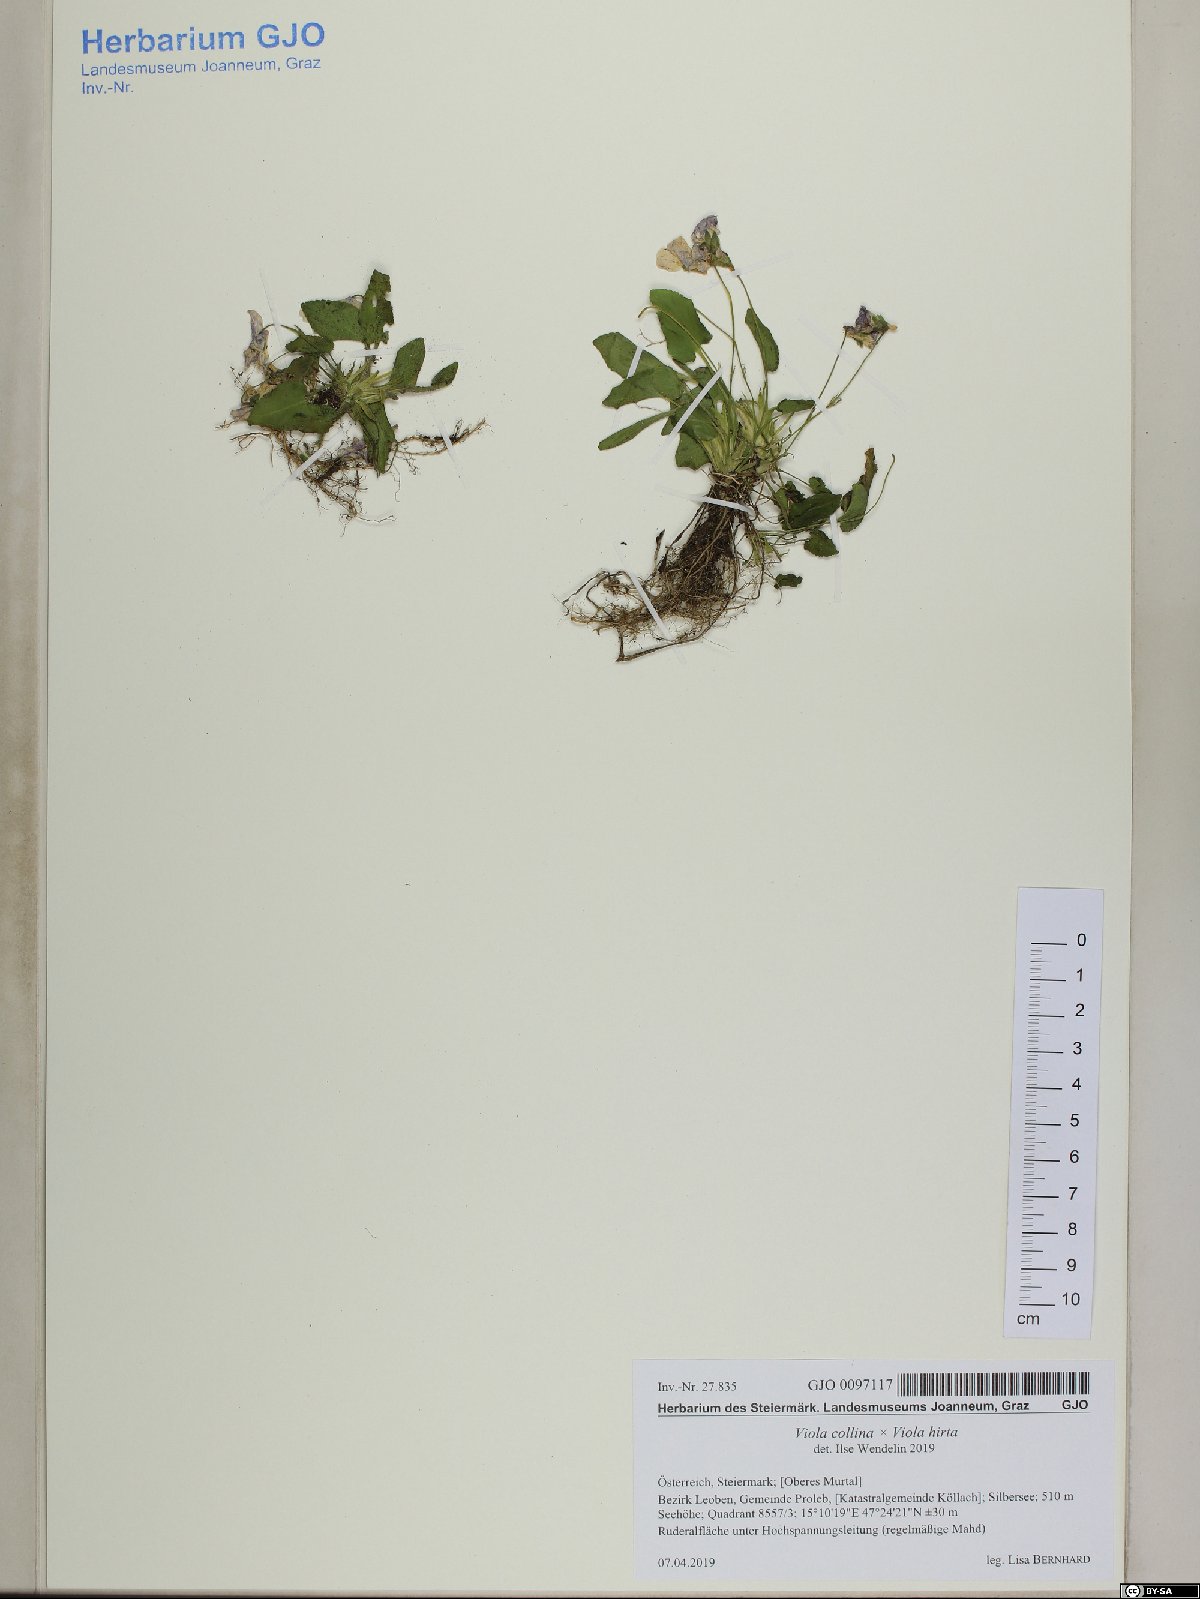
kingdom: Plantae
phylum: Tracheophyta
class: Magnoliopsida
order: Malpighiales
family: Violaceae
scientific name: Violaceae
